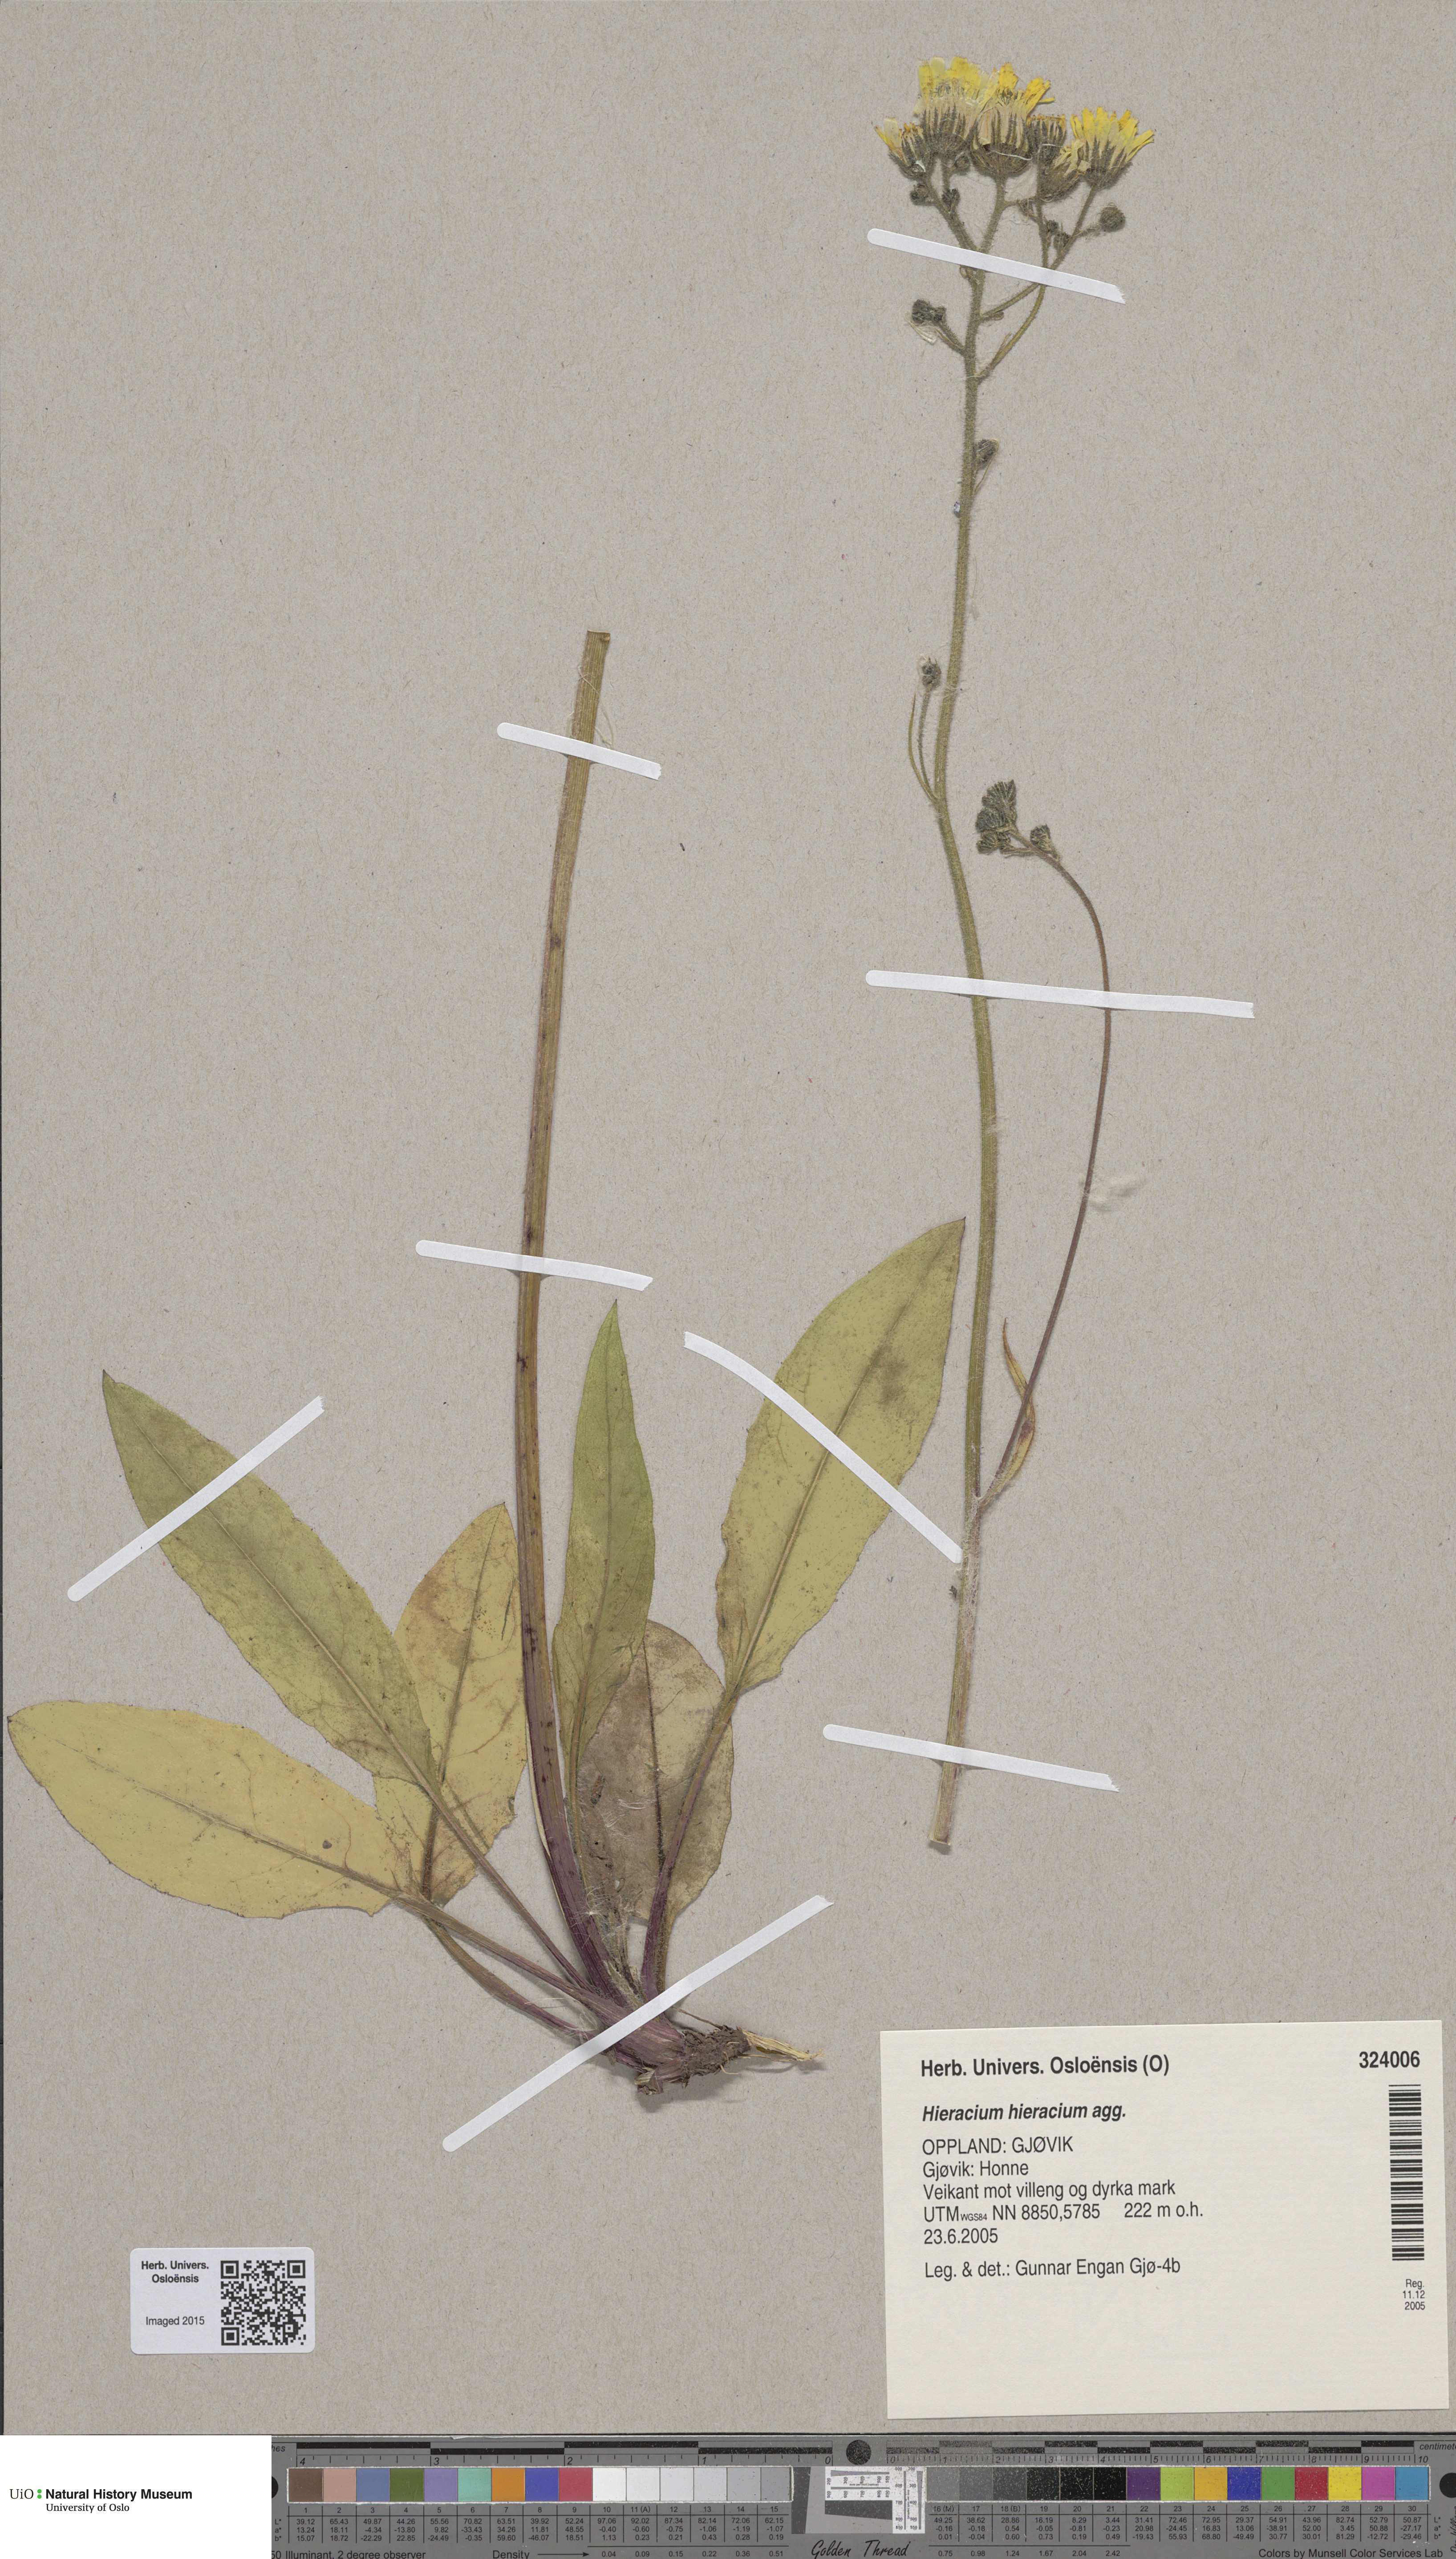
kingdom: Plantae
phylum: Tracheophyta
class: Magnoliopsida
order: Asterales
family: Asteraceae
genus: Hieracium
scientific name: Hieracium
